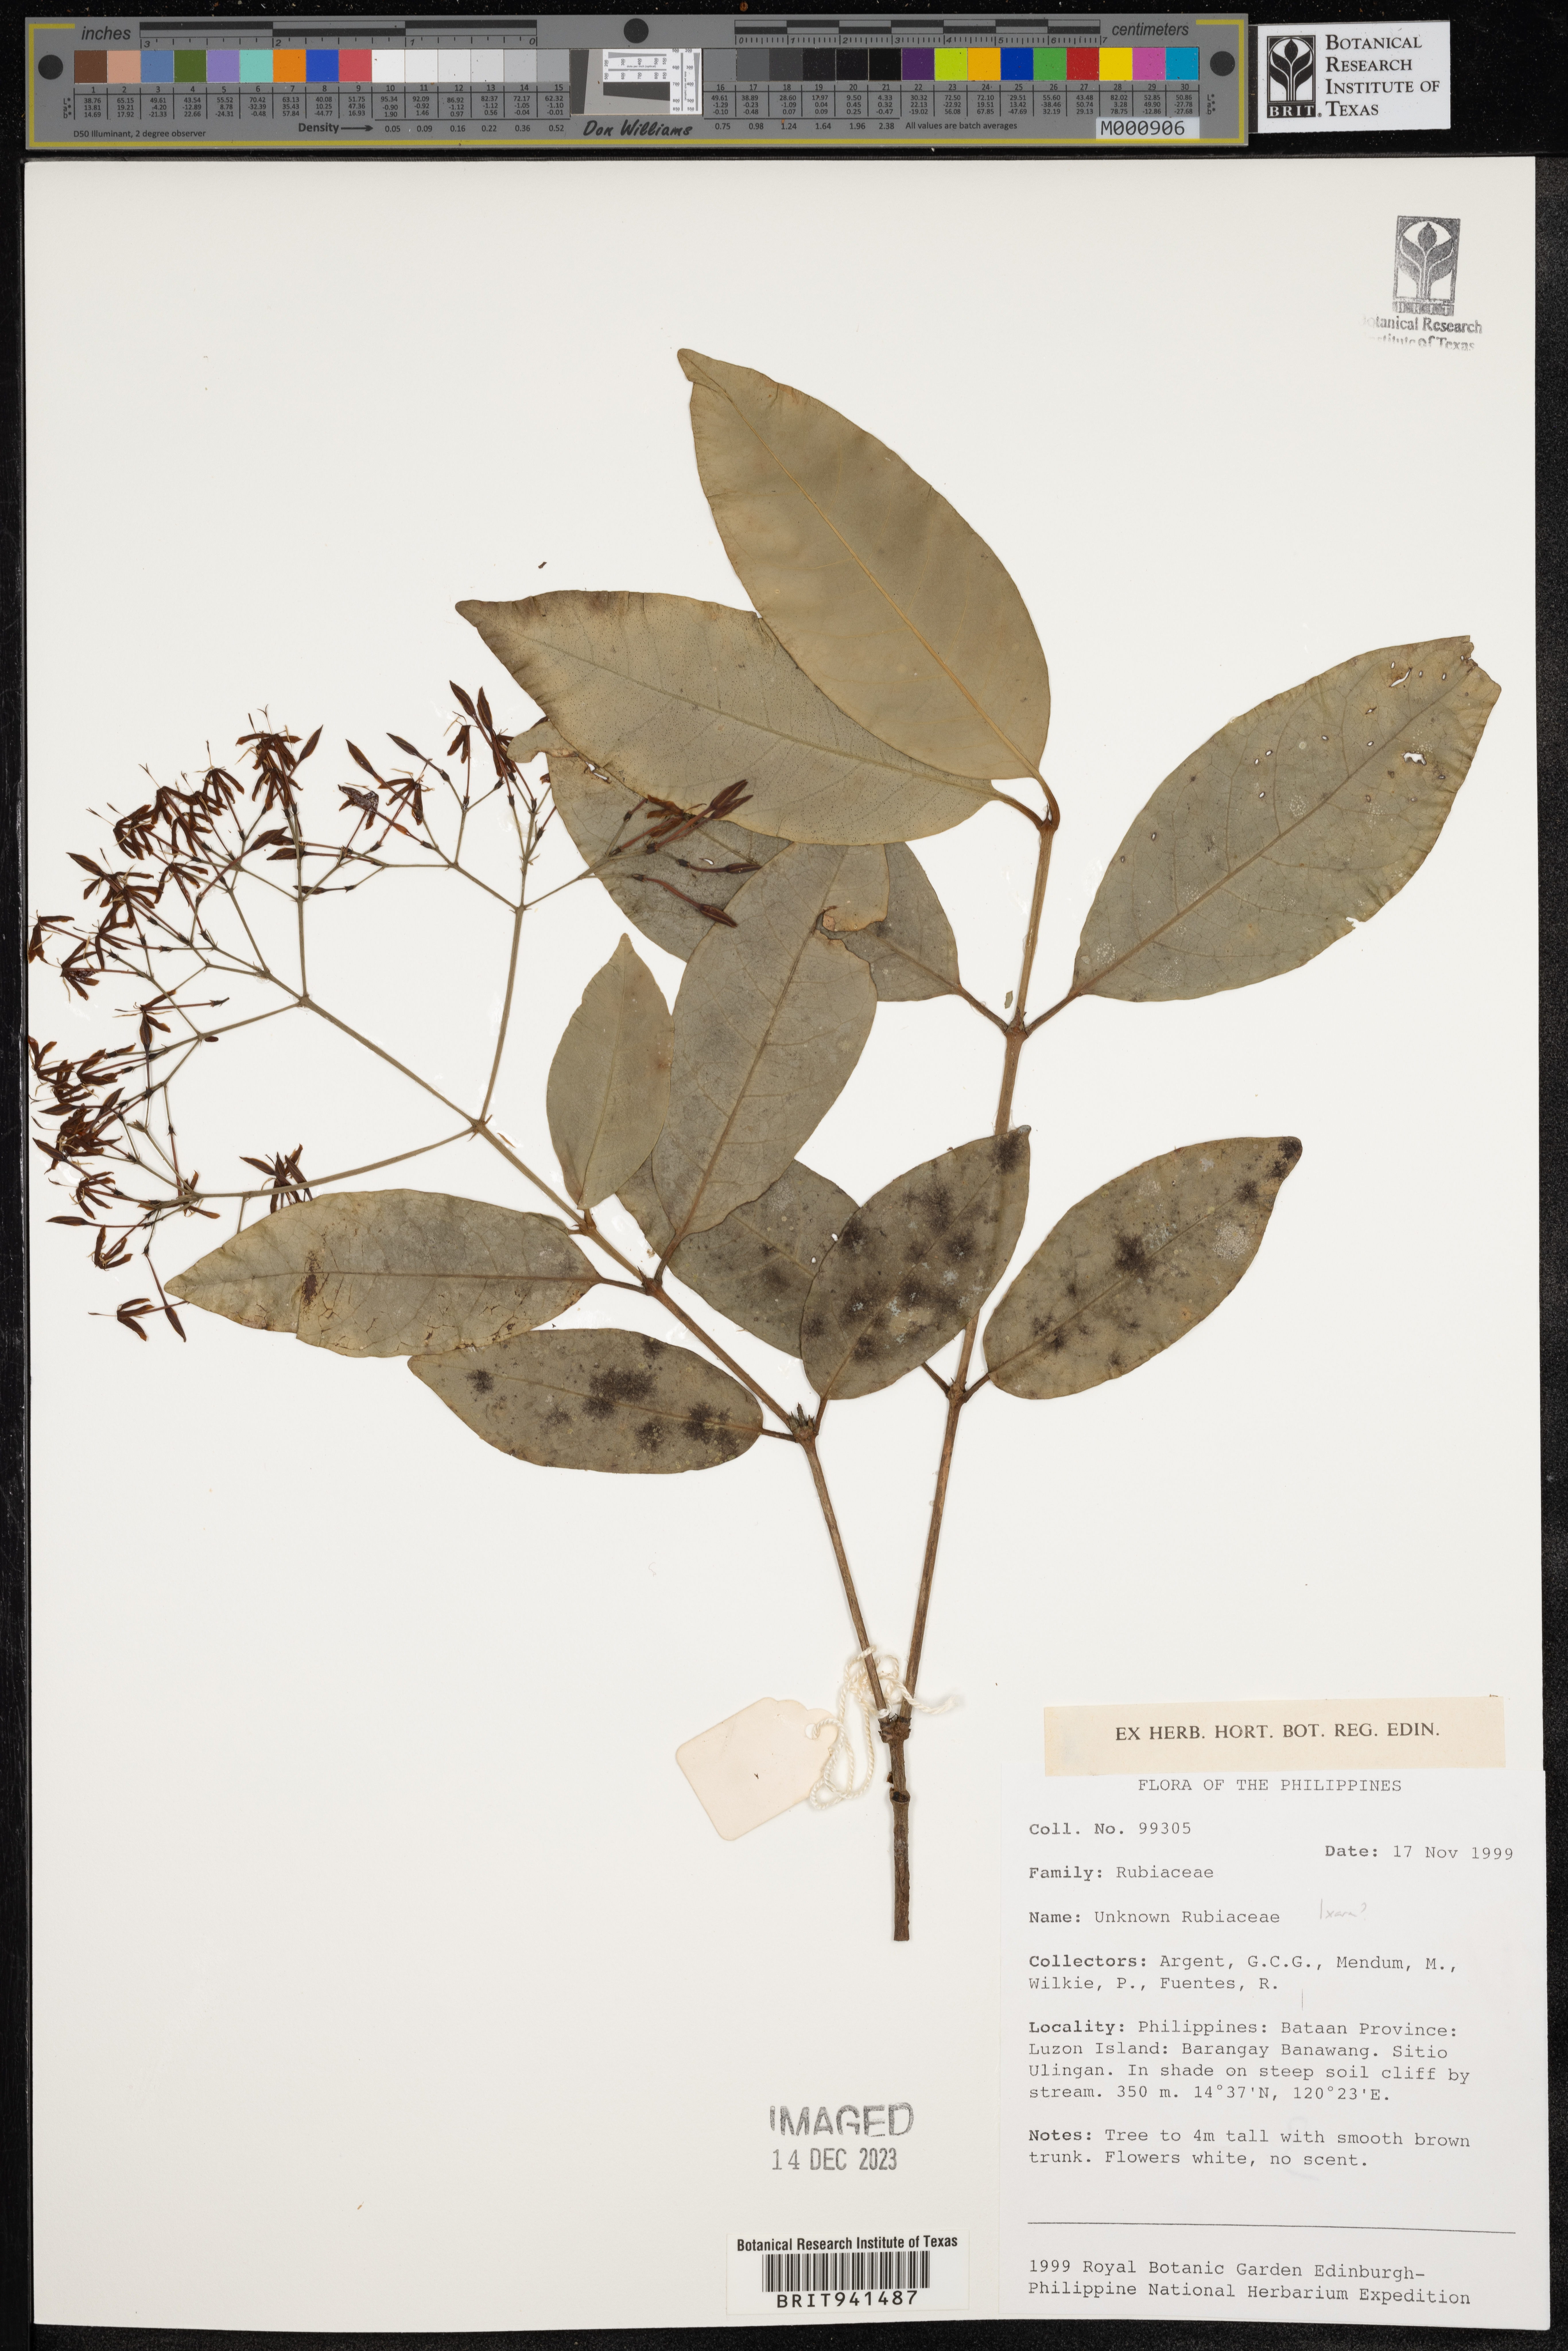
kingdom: Plantae
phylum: Tracheophyta
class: Magnoliopsida
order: Gentianales
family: Rubiaceae
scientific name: Rubiaceae
